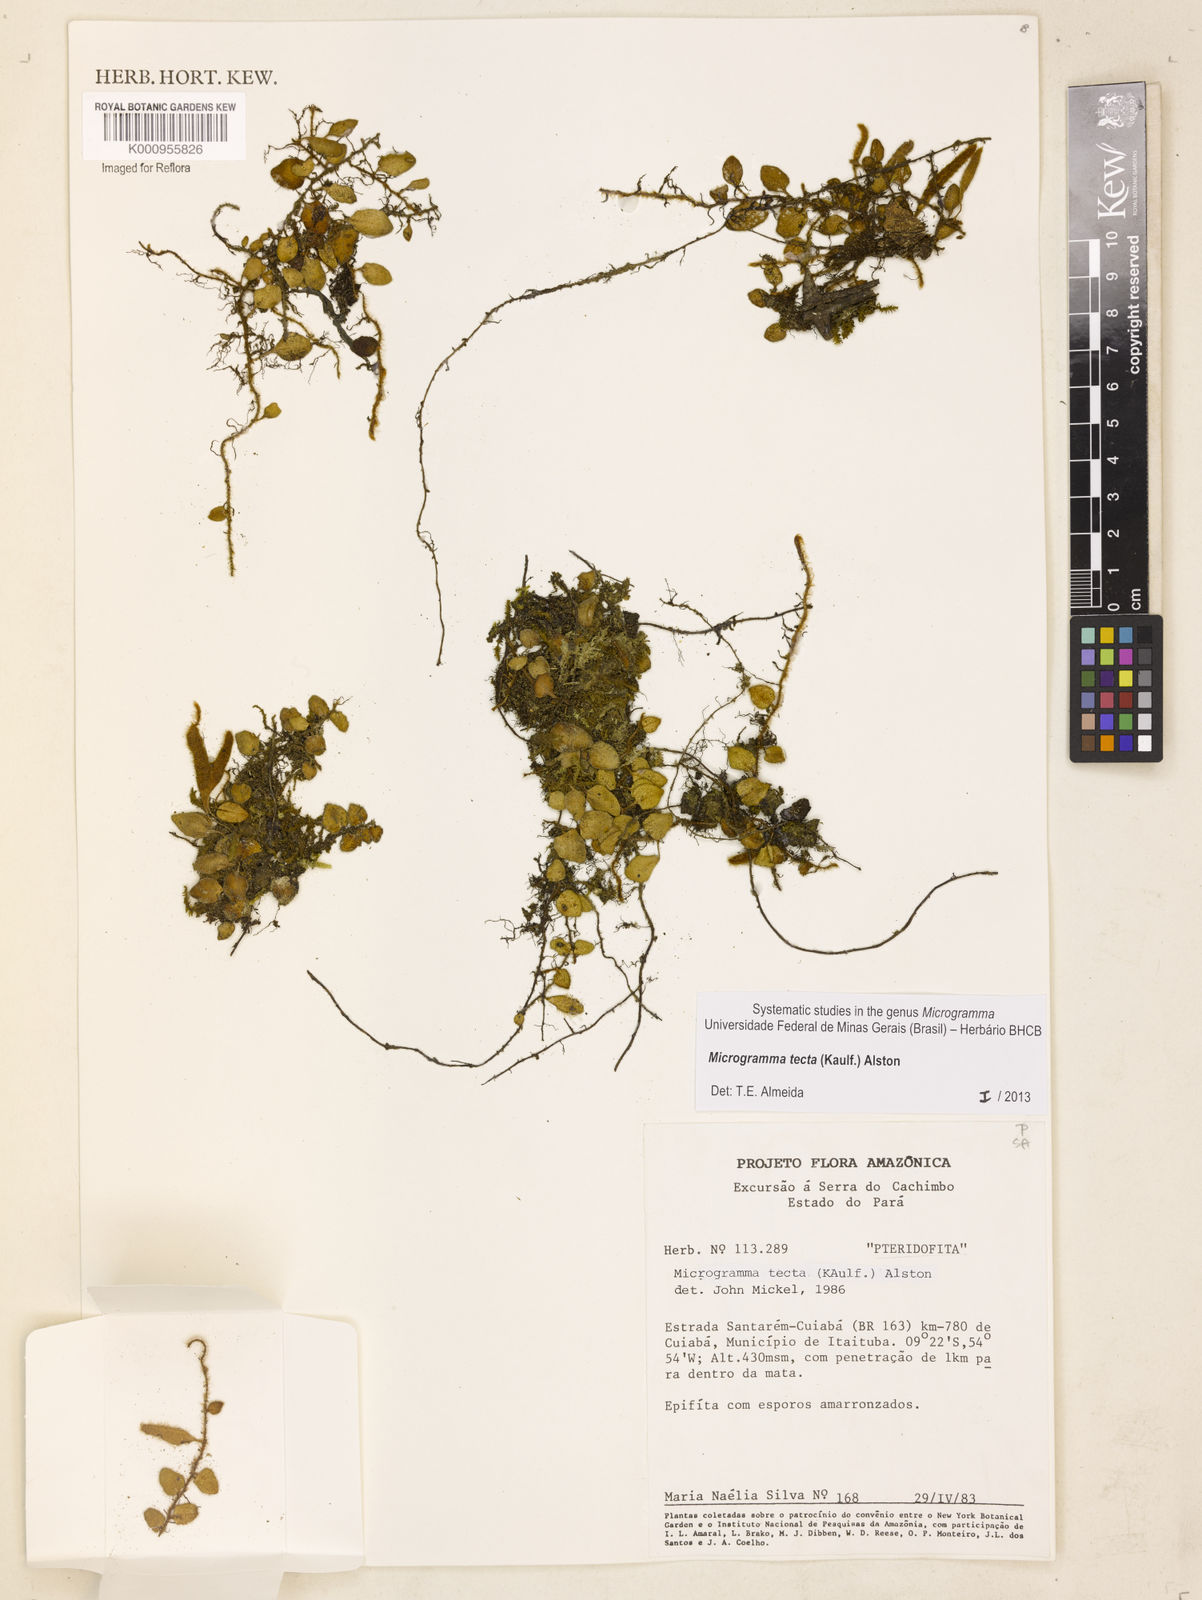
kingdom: Plantae
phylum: Tracheophyta
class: Polypodiopsida
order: Polypodiales
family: Polypodiaceae
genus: Microgramma
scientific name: Microgramma tecta
